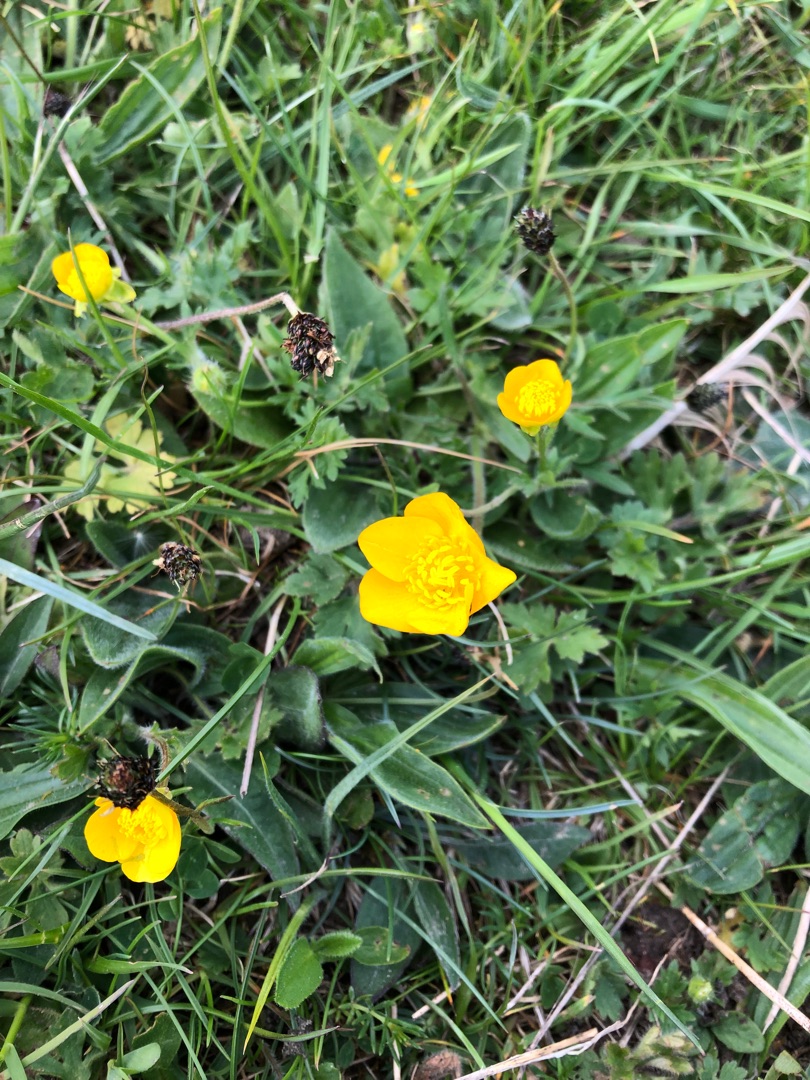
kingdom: Plantae
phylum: Tracheophyta
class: Magnoliopsida
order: Ranunculales
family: Ranunculaceae
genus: Ranunculus
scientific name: Ranunculus bulbosus
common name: Knold-ranunkel
